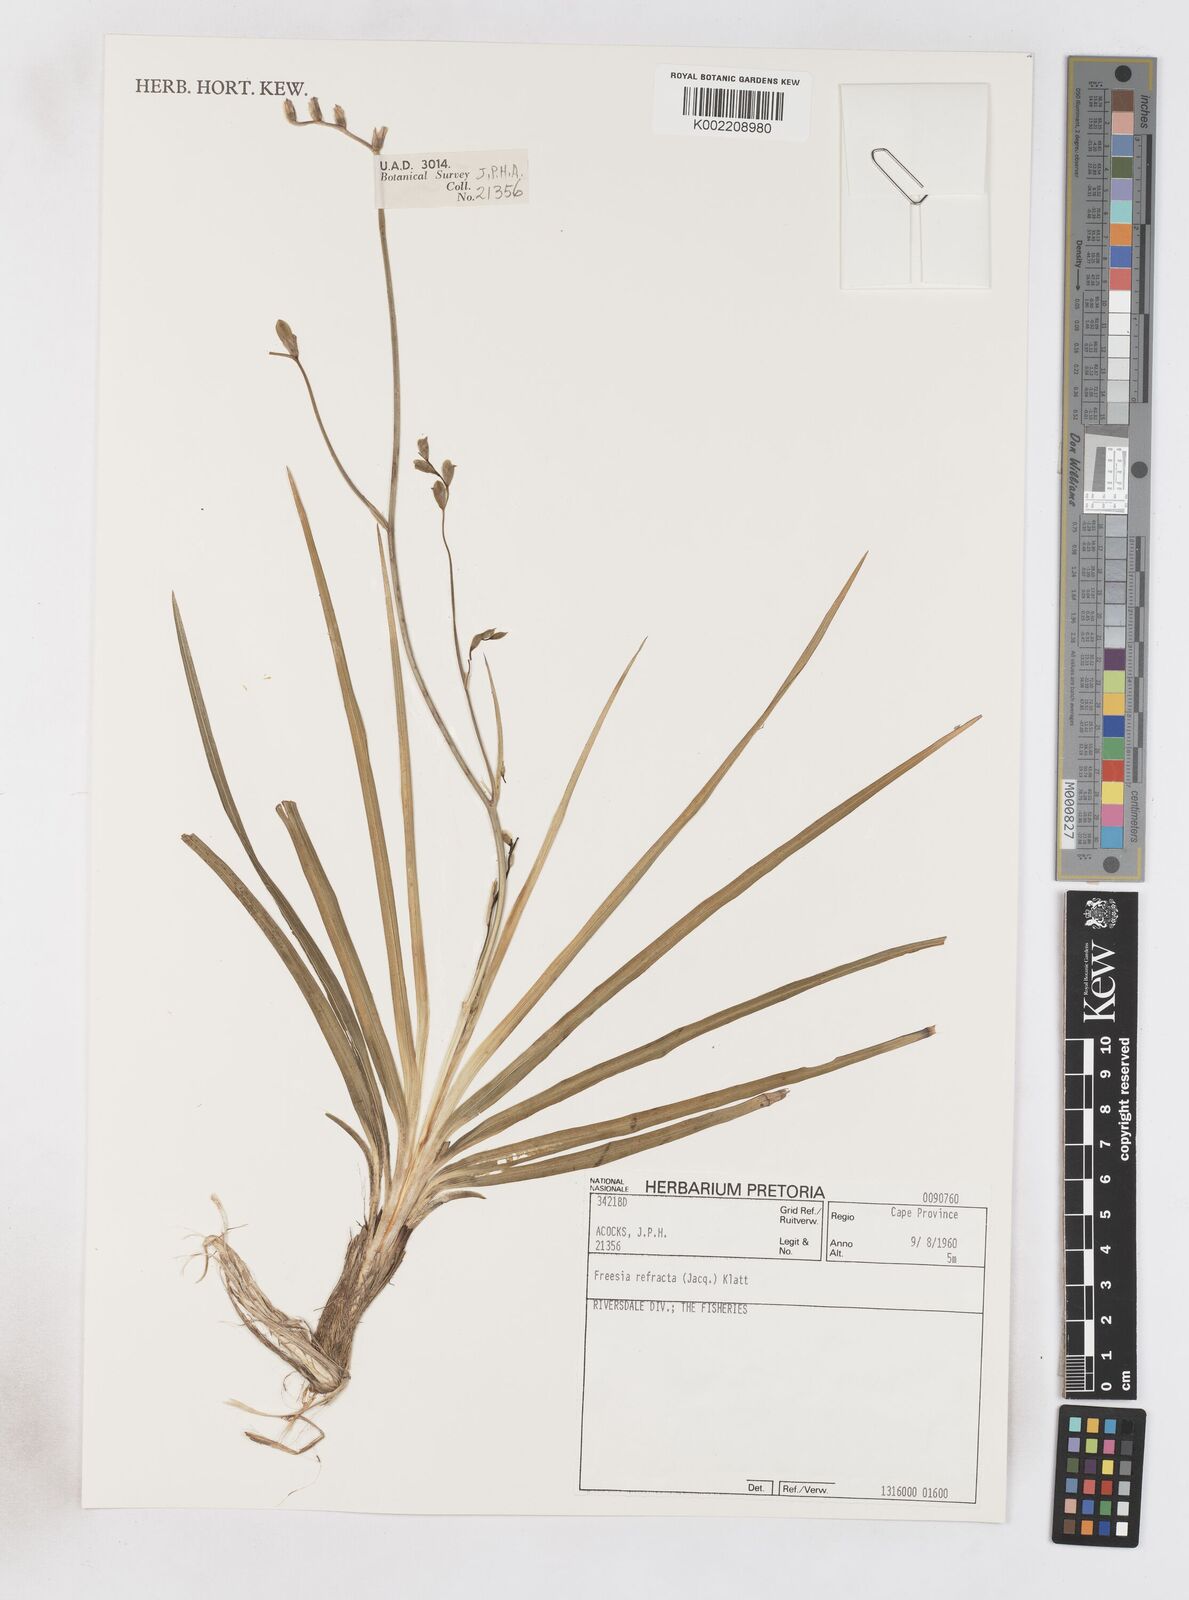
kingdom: Plantae
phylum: Tracheophyta
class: Liliopsida
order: Asparagales
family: Iridaceae
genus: Freesia
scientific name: Freesia refracta
